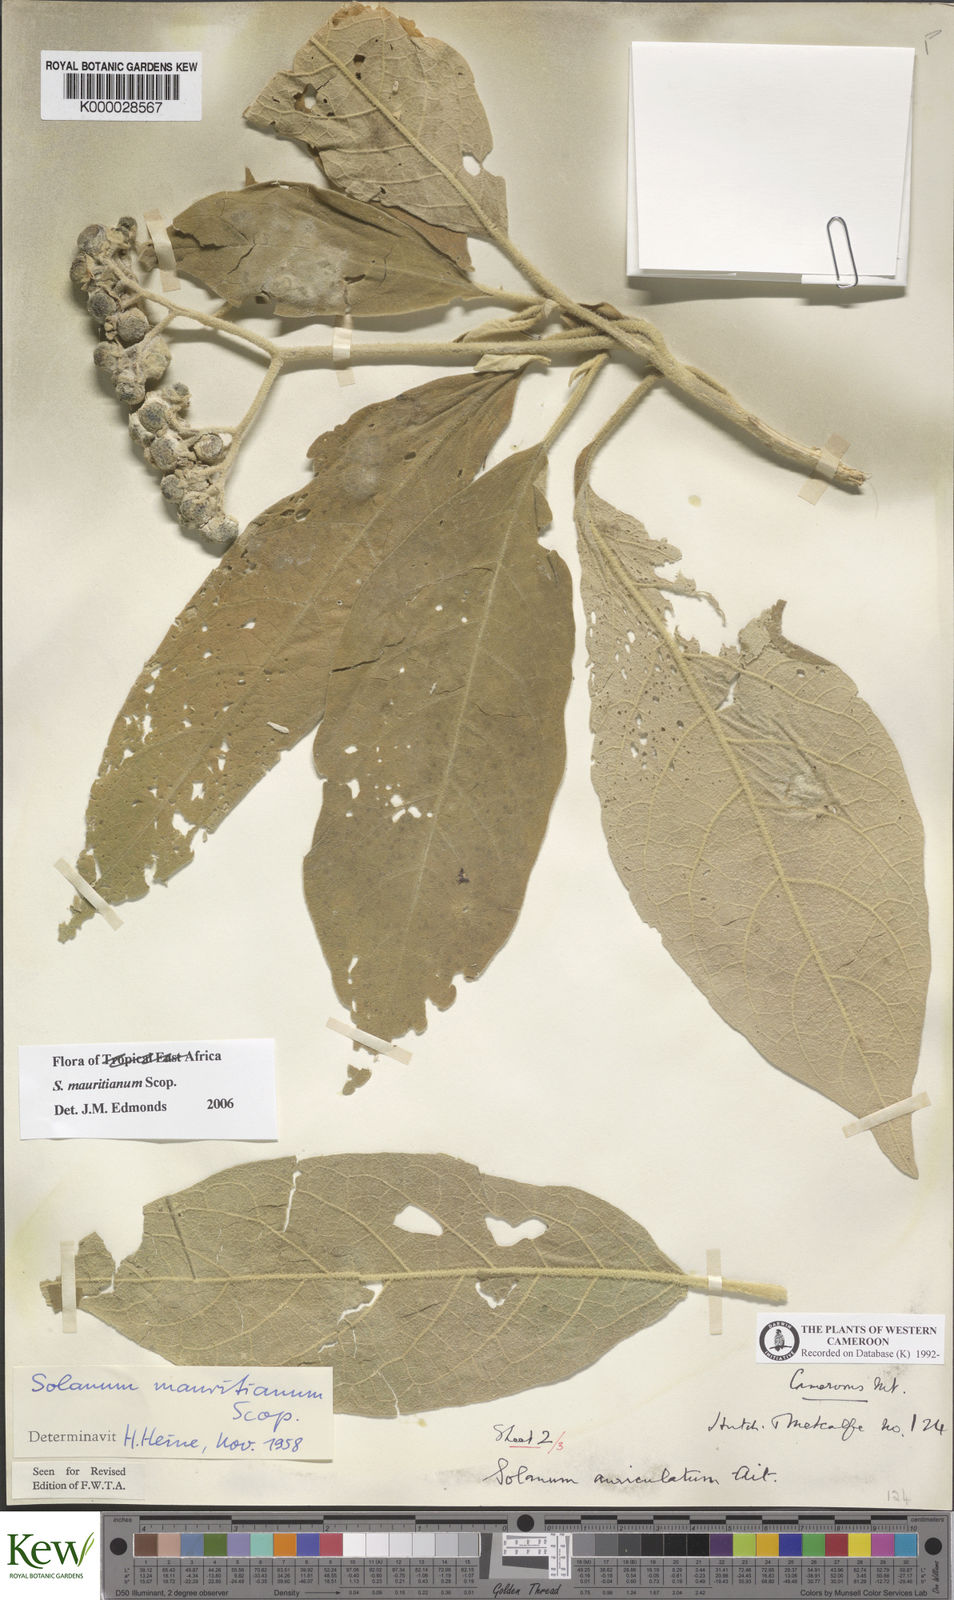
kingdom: Plantae
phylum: Tracheophyta
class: Magnoliopsida
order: Solanales
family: Solanaceae
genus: Solanum
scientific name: Solanum mauritianum
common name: Earleaf nightshade
